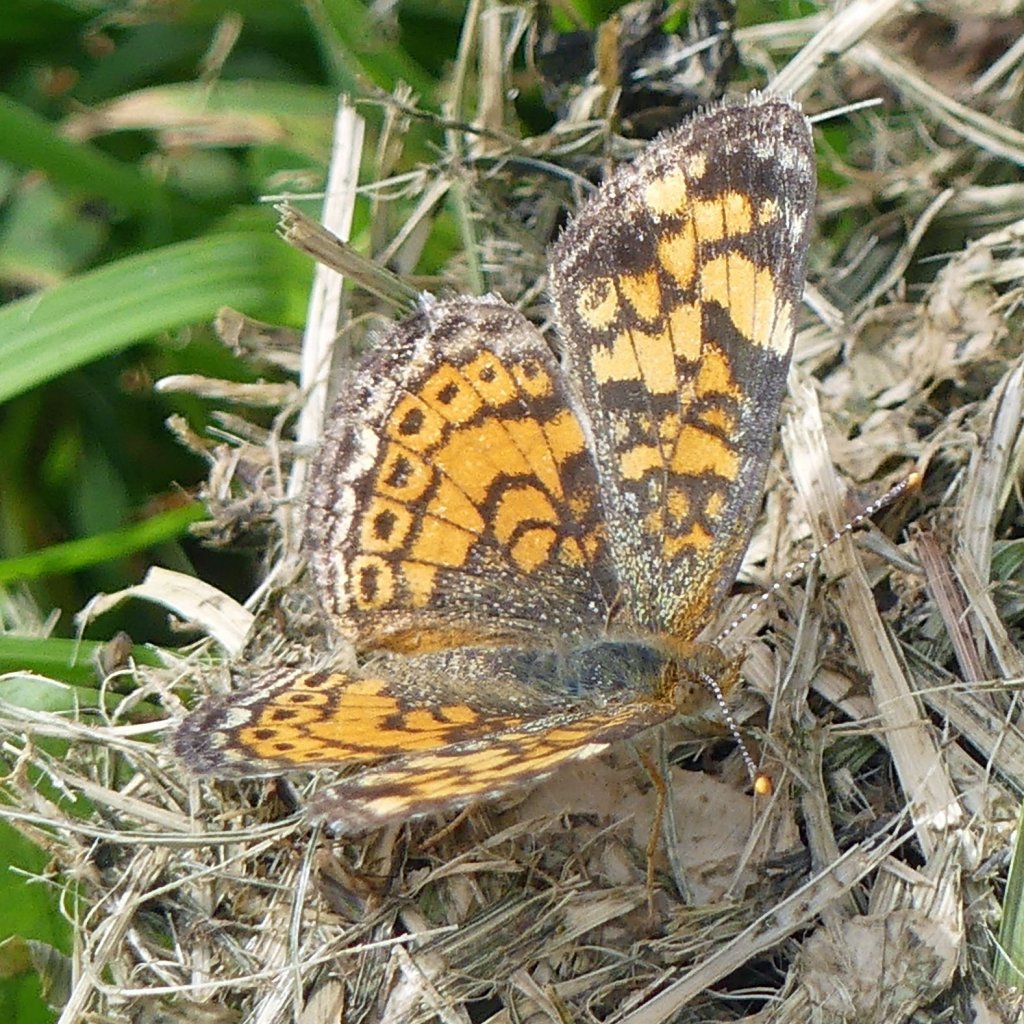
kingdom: Animalia
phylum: Arthropoda
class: Insecta
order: Lepidoptera
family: Nymphalidae
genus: Phyciodes
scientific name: Phyciodes tharos
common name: Northern Crescent
